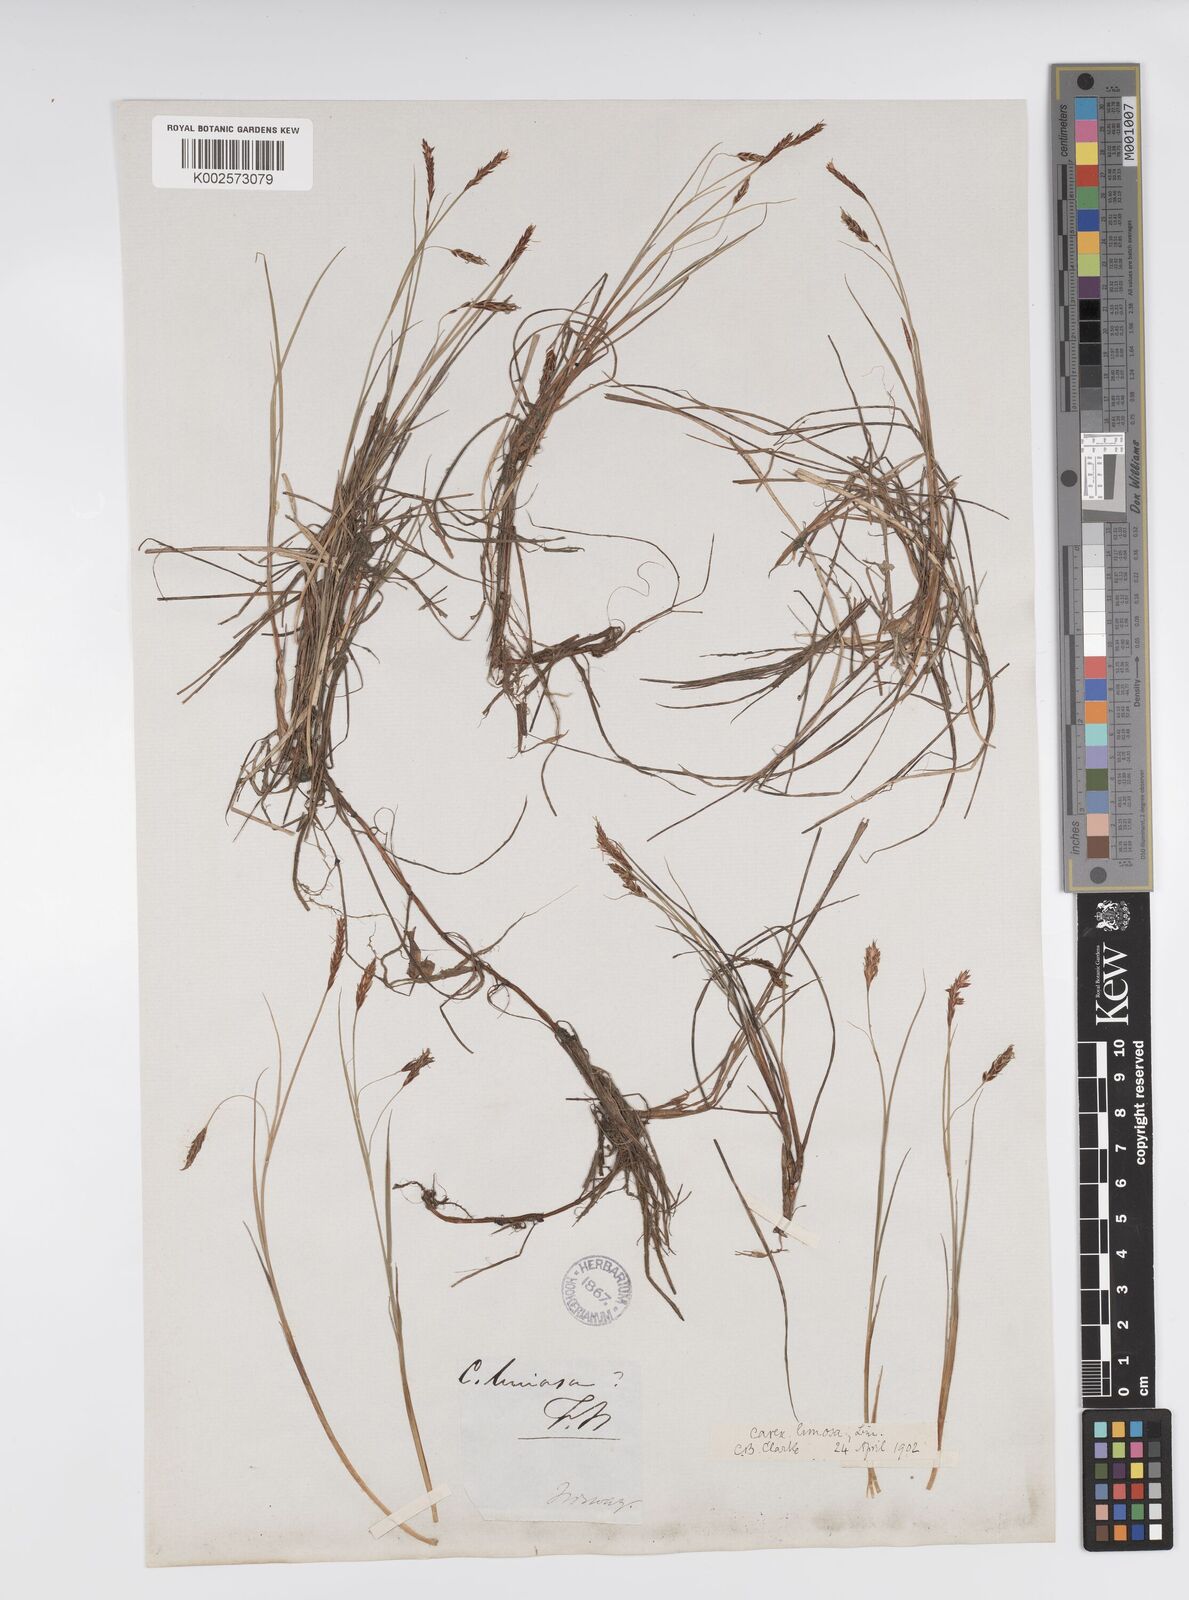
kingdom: Plantae
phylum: Tracheophyta
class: Liliopsida
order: Poales
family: Cyperaceae
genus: Carex
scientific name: Carex limosa
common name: Bog sedge
